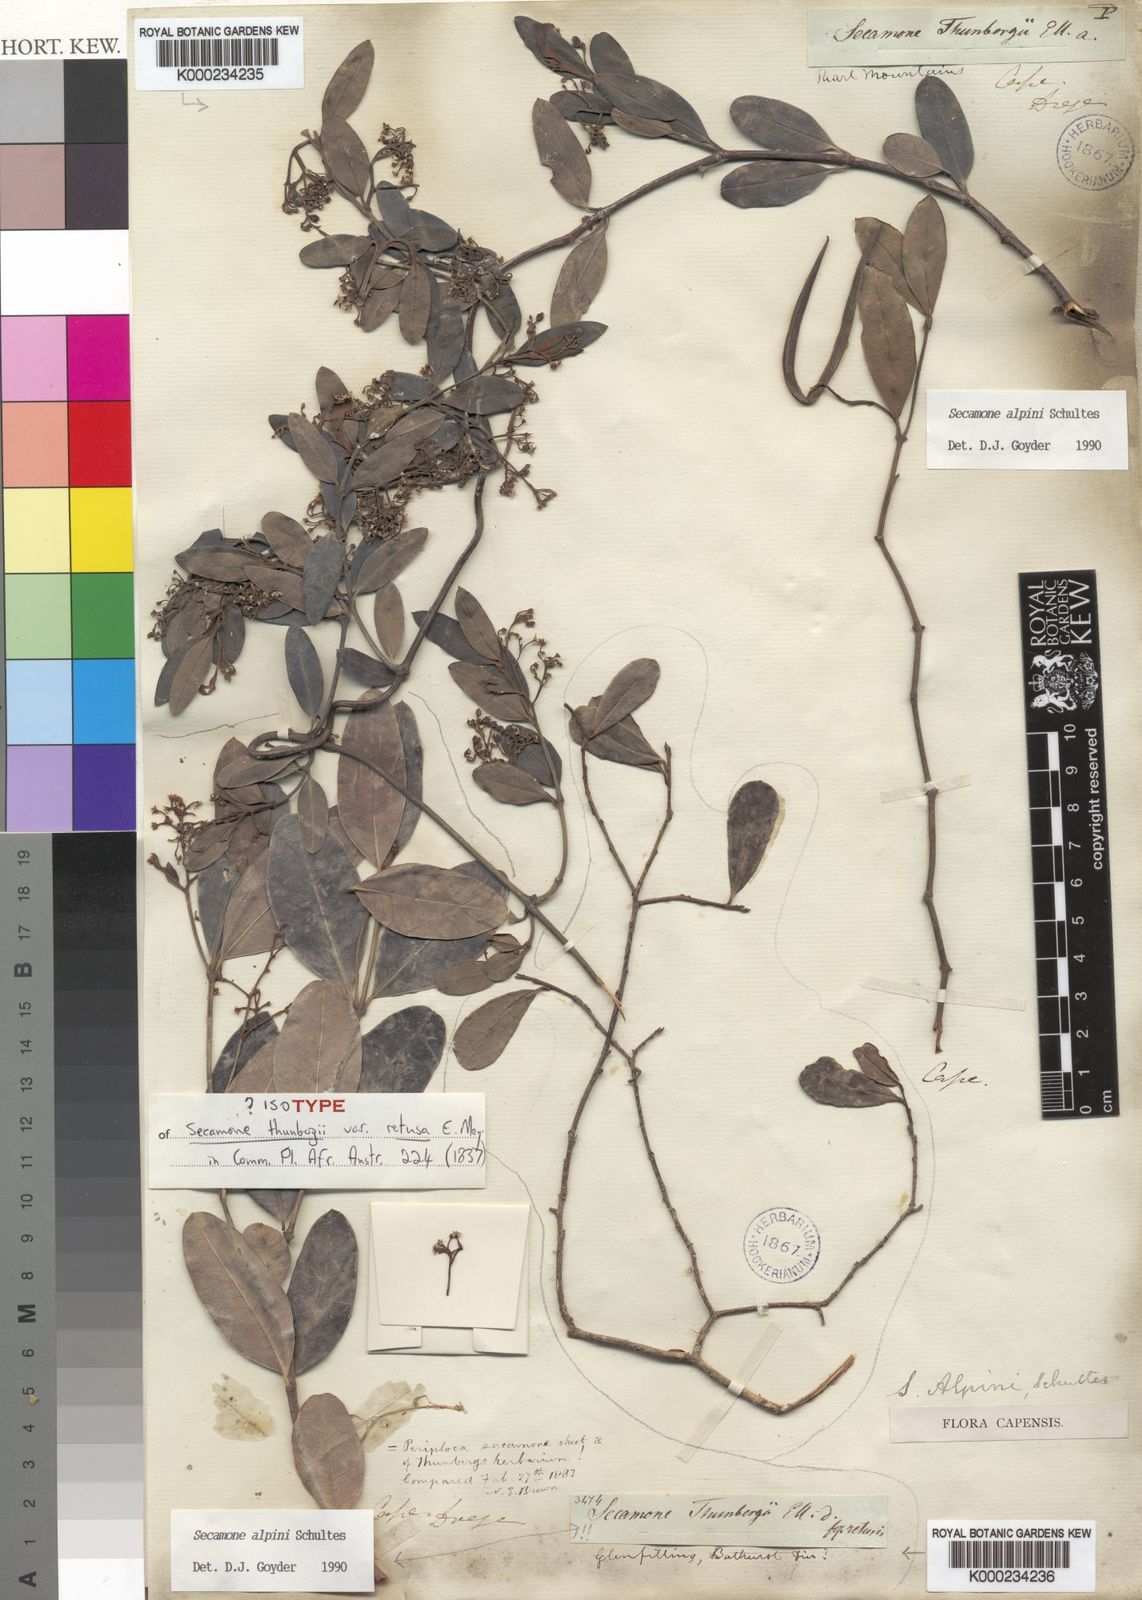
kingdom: Plantae
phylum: Tracheophyta
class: Magnoliopsida
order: Gentianales
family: Apocynaceae
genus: Secamone
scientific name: Secamone alpini
